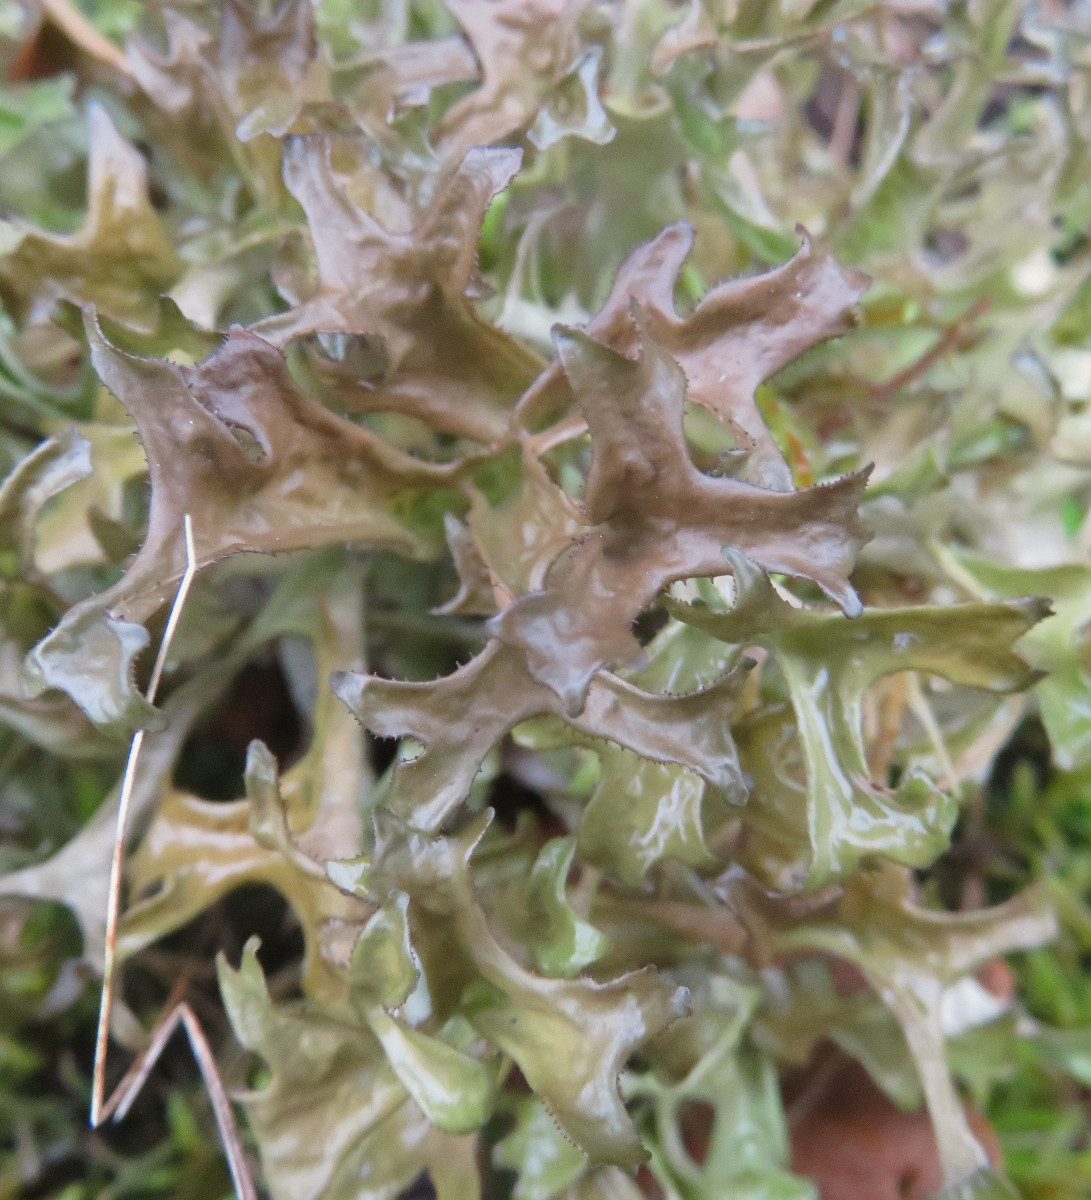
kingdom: Fungi
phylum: Ascomycota
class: Lecanoromycetes
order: Lecanorales
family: Parmeliaceae
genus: Cetraria
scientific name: Cetraria islandica
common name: islandsk kruslav
